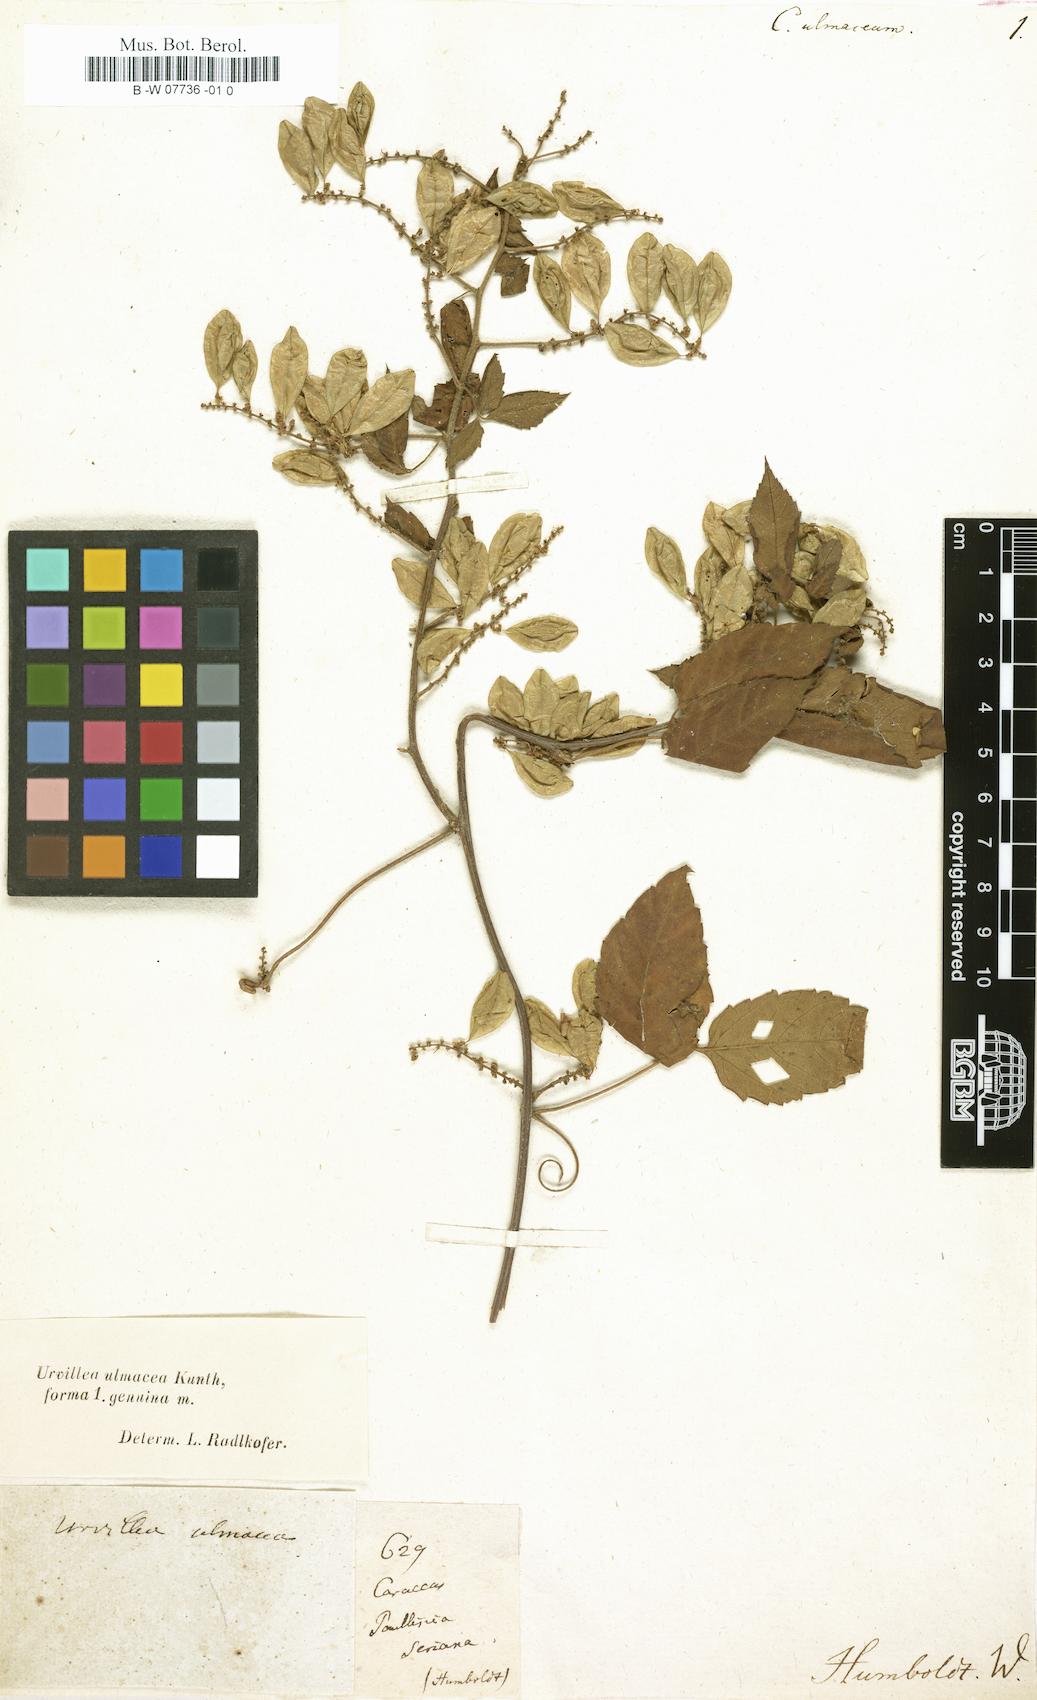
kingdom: Plantae
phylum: Tracheophyta
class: Magnoliopsida
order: Sapindales
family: Sapindaceae
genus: Cardiospermum
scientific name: Cardiospermum
